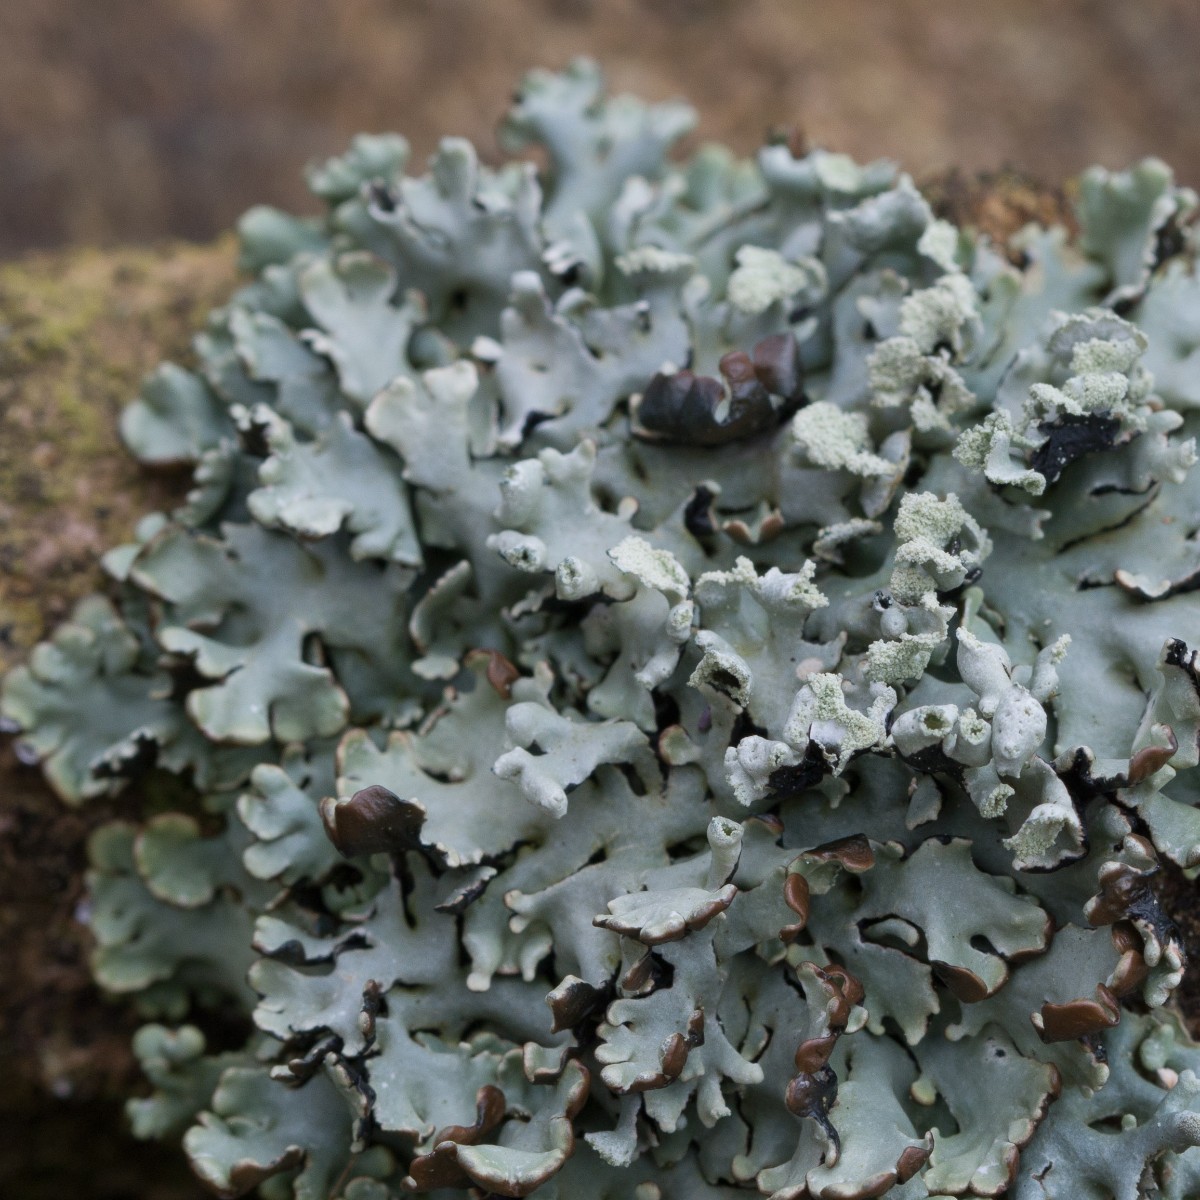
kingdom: Fungi
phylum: Ascomycota
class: Lecanoromycetes
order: Lecanorales
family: Parmeliaceae
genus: Hypogymnia
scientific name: Hypogymnia physodes
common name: almindelig kvistlav
